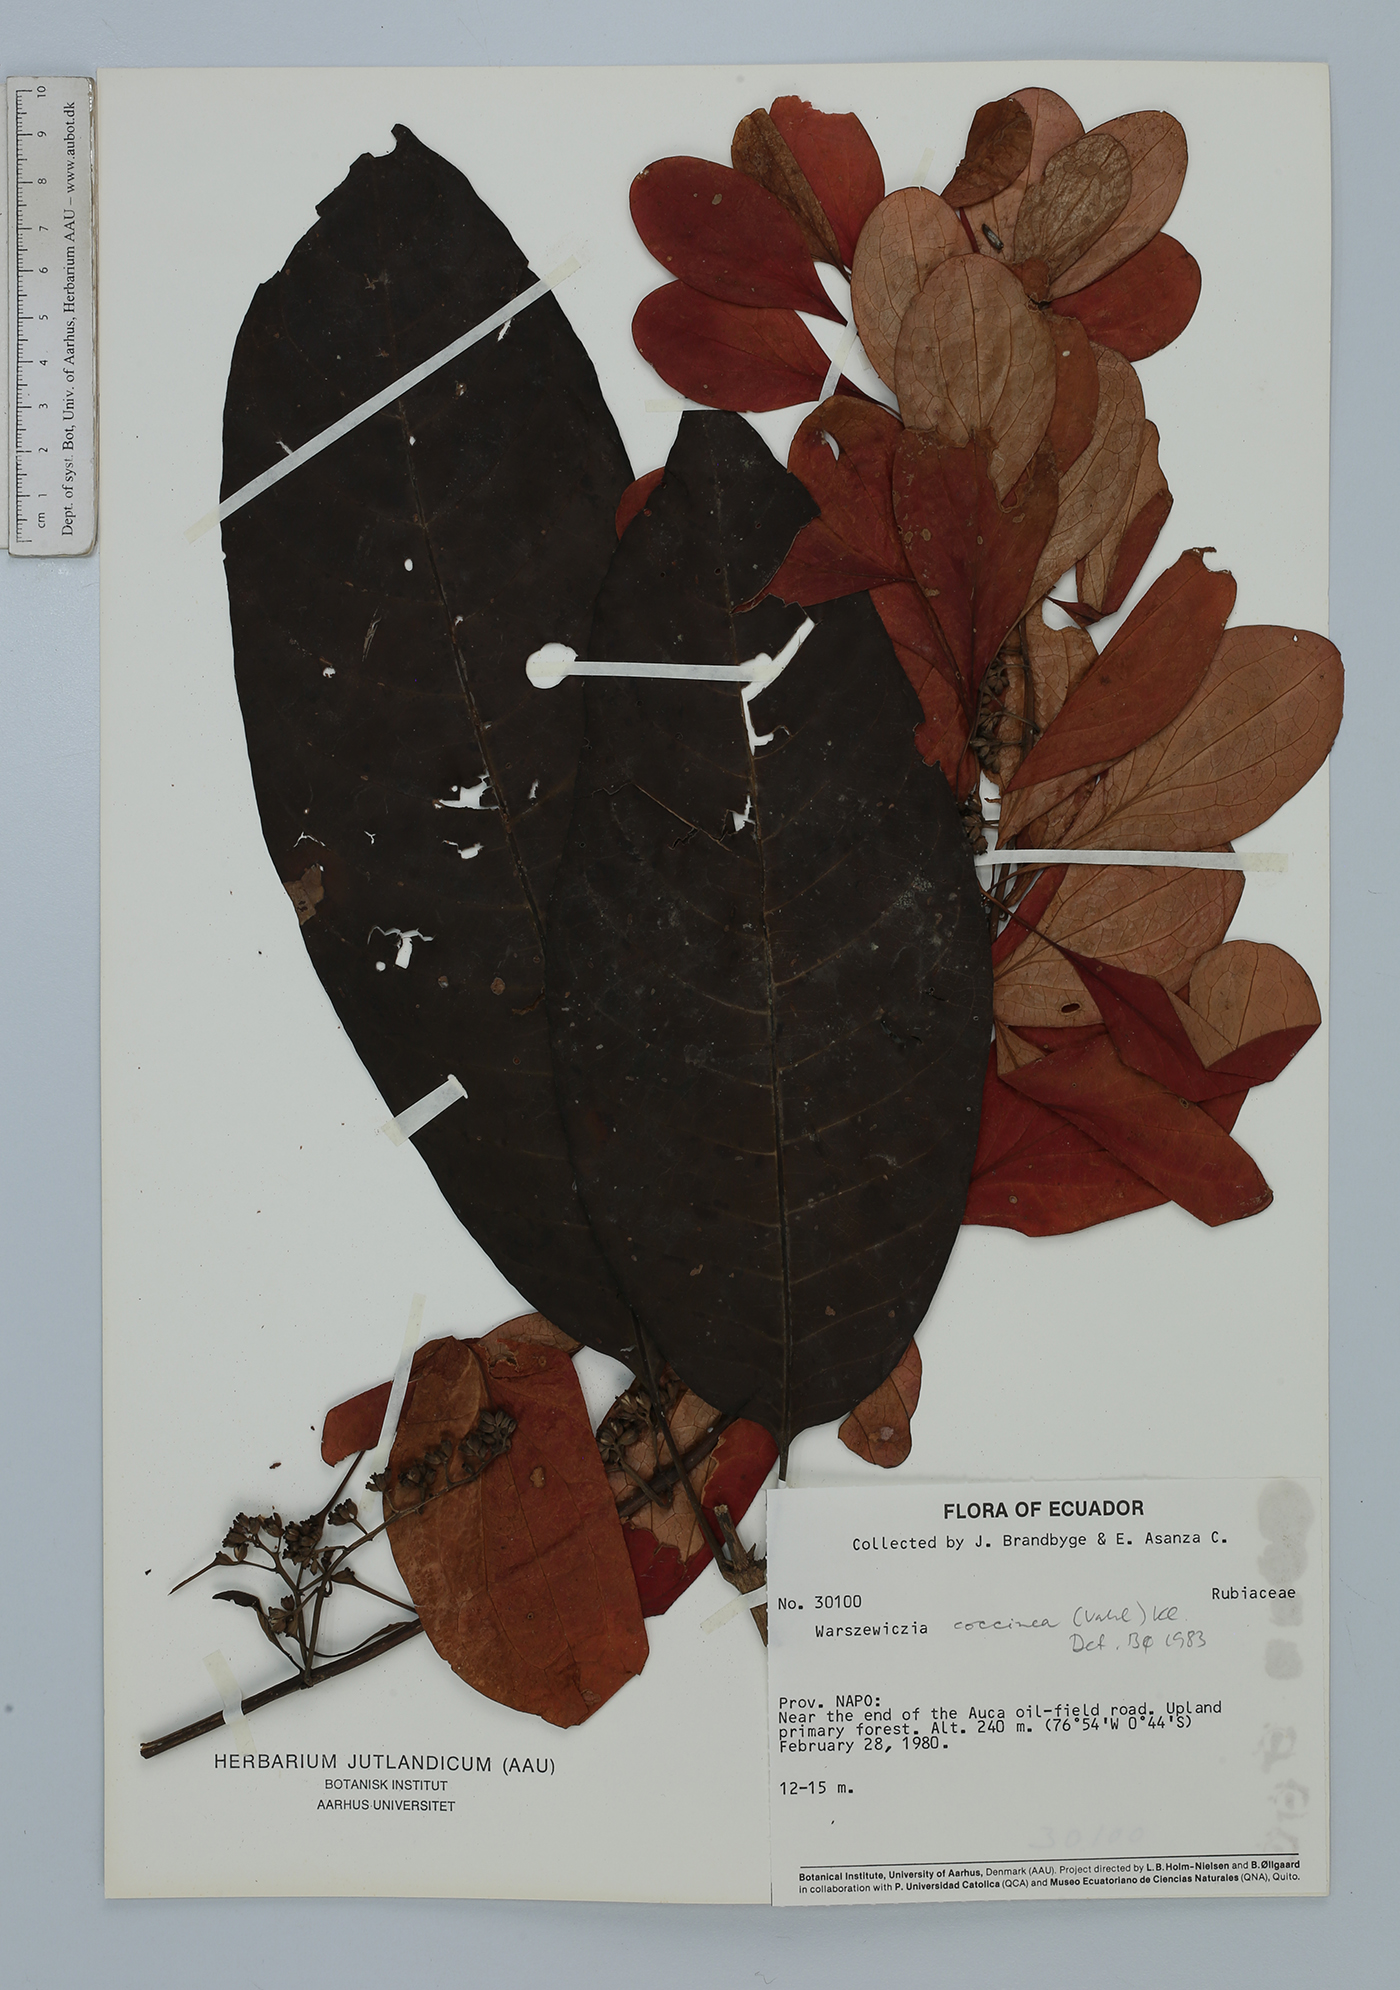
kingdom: Plantae
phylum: Tracheophyta
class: Magnoliopsida
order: Gentianales
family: Rubiaceae
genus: Warszewiczia
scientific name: Warszewiczia coccinea
